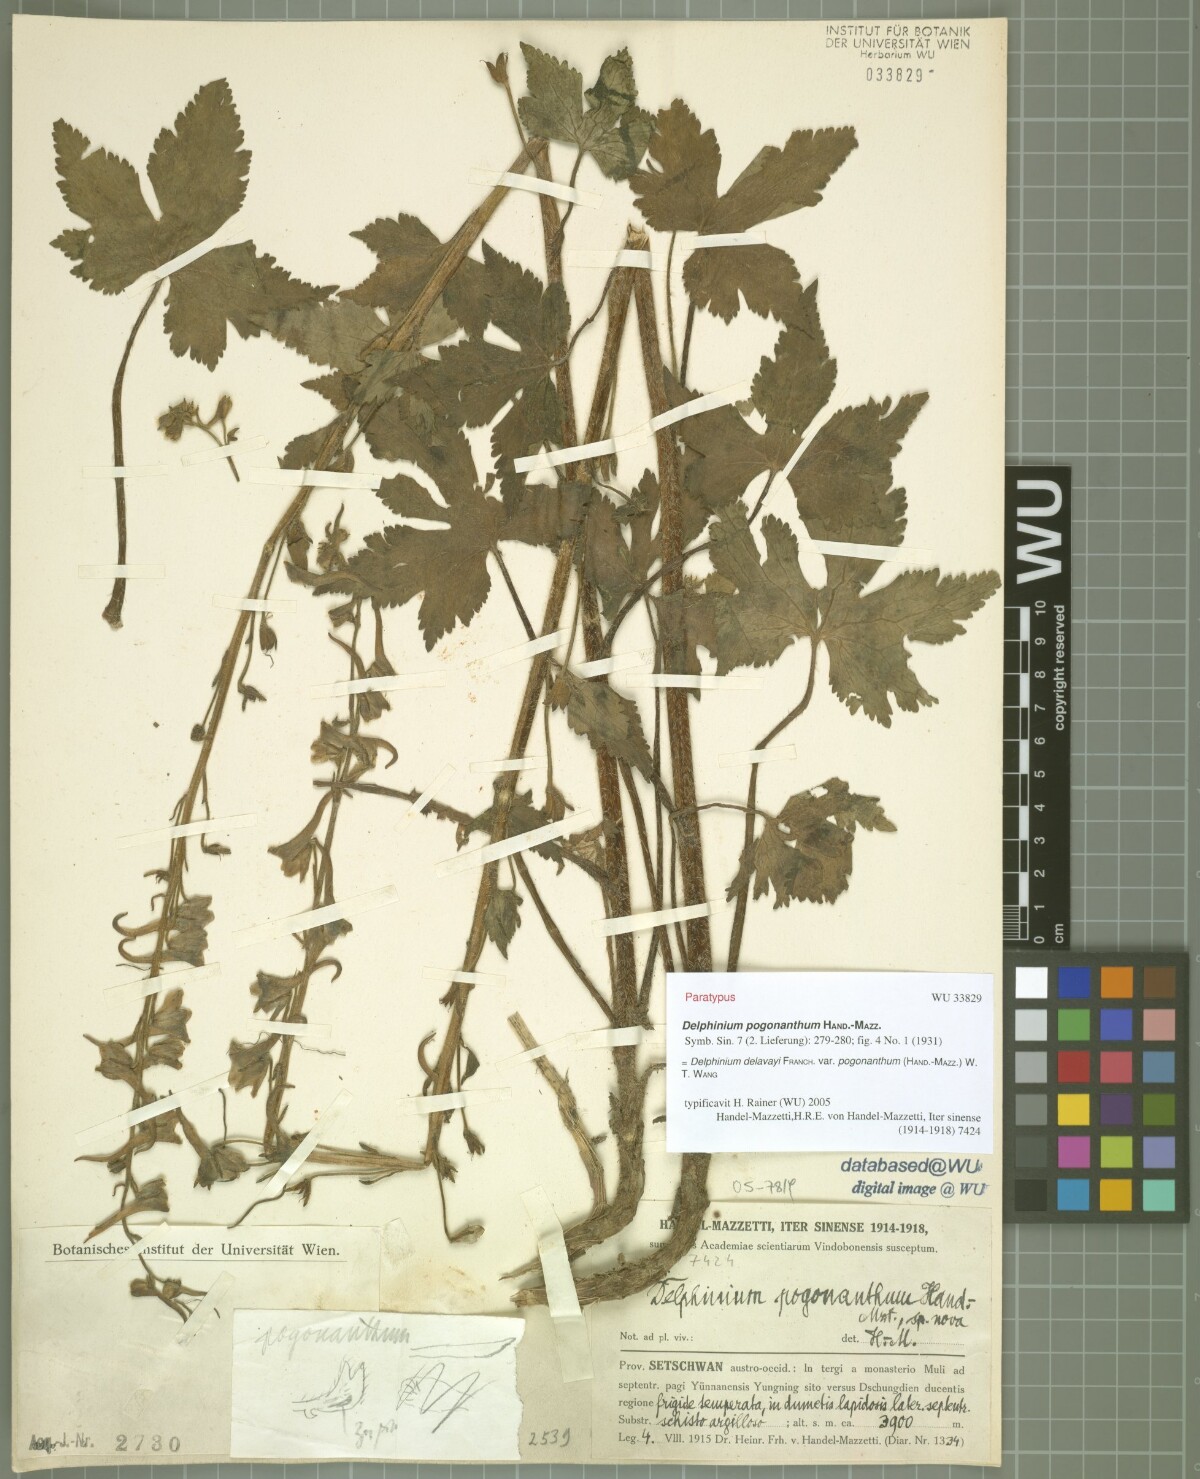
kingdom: Plantae
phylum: Tracheophyta
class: Magnoliopsida
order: Ranunculales
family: Ranunculaceae
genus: Delphinium
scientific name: Delphinium delavayi
